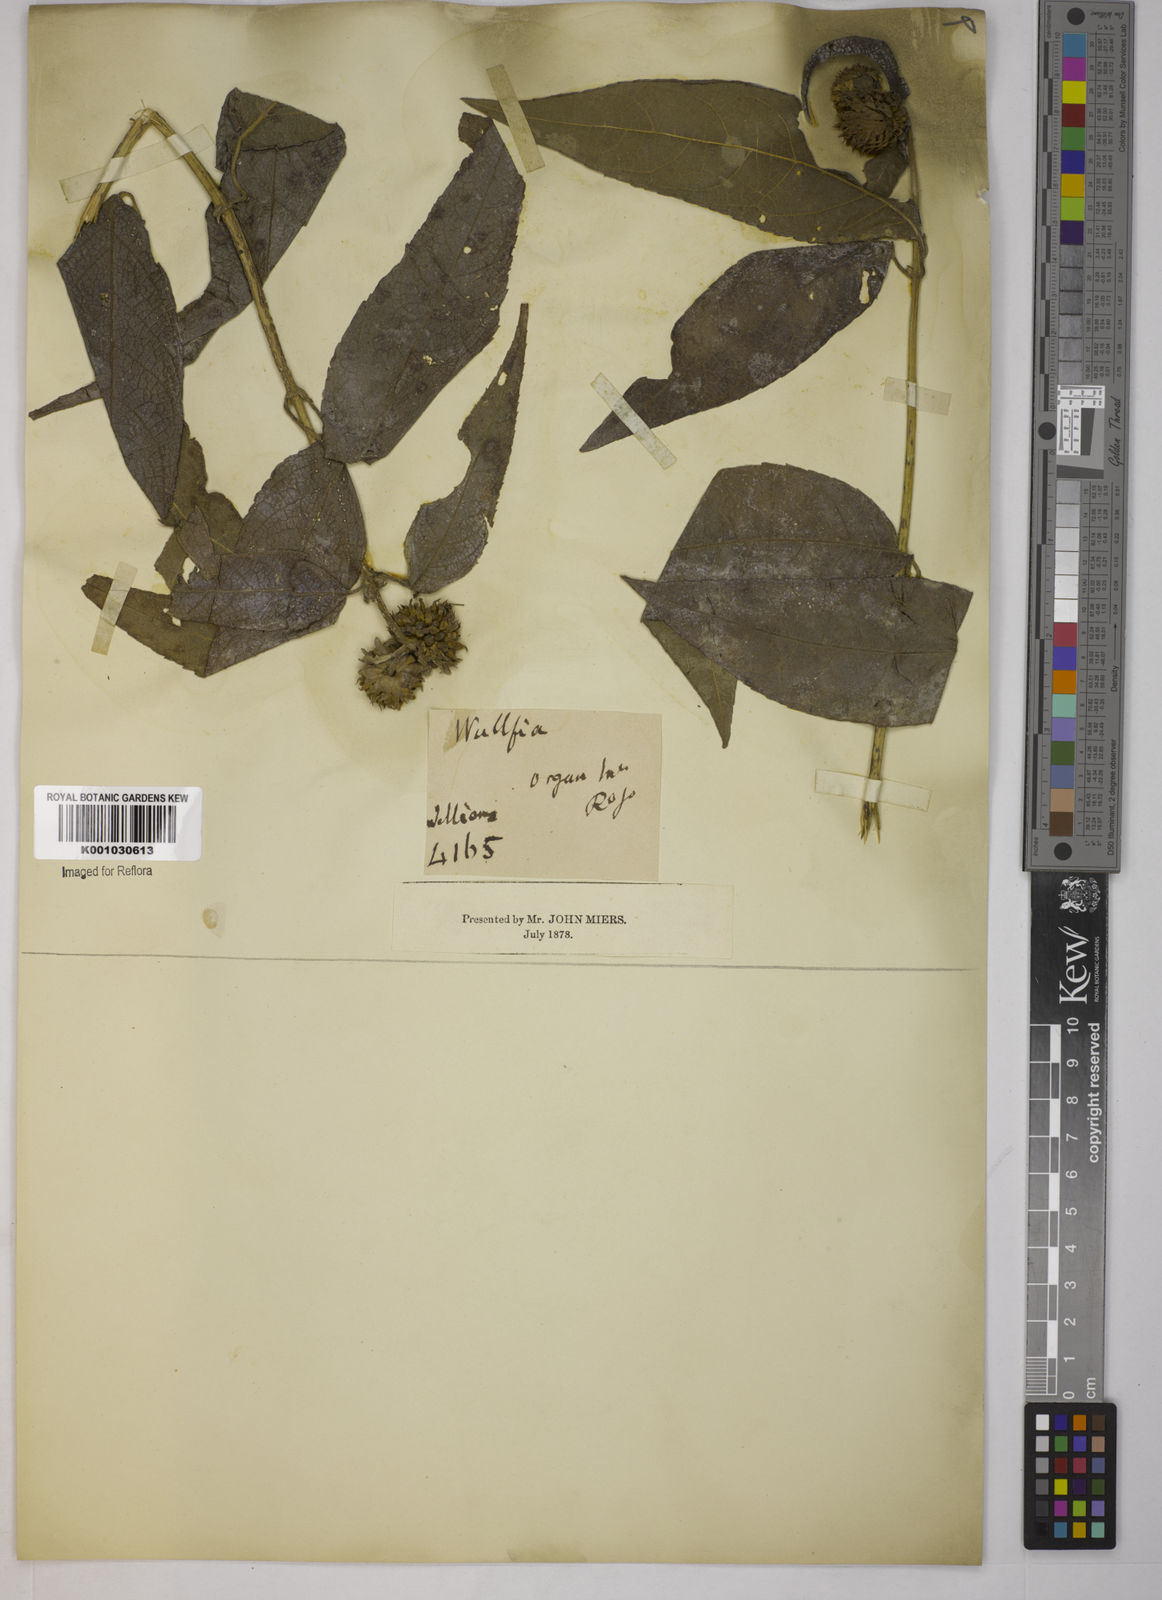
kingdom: Plantae
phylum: Tracheophyta
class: Magnoliopsida
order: Asterales
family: Asteraceae
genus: Tilesia
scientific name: Tilesia baccata
